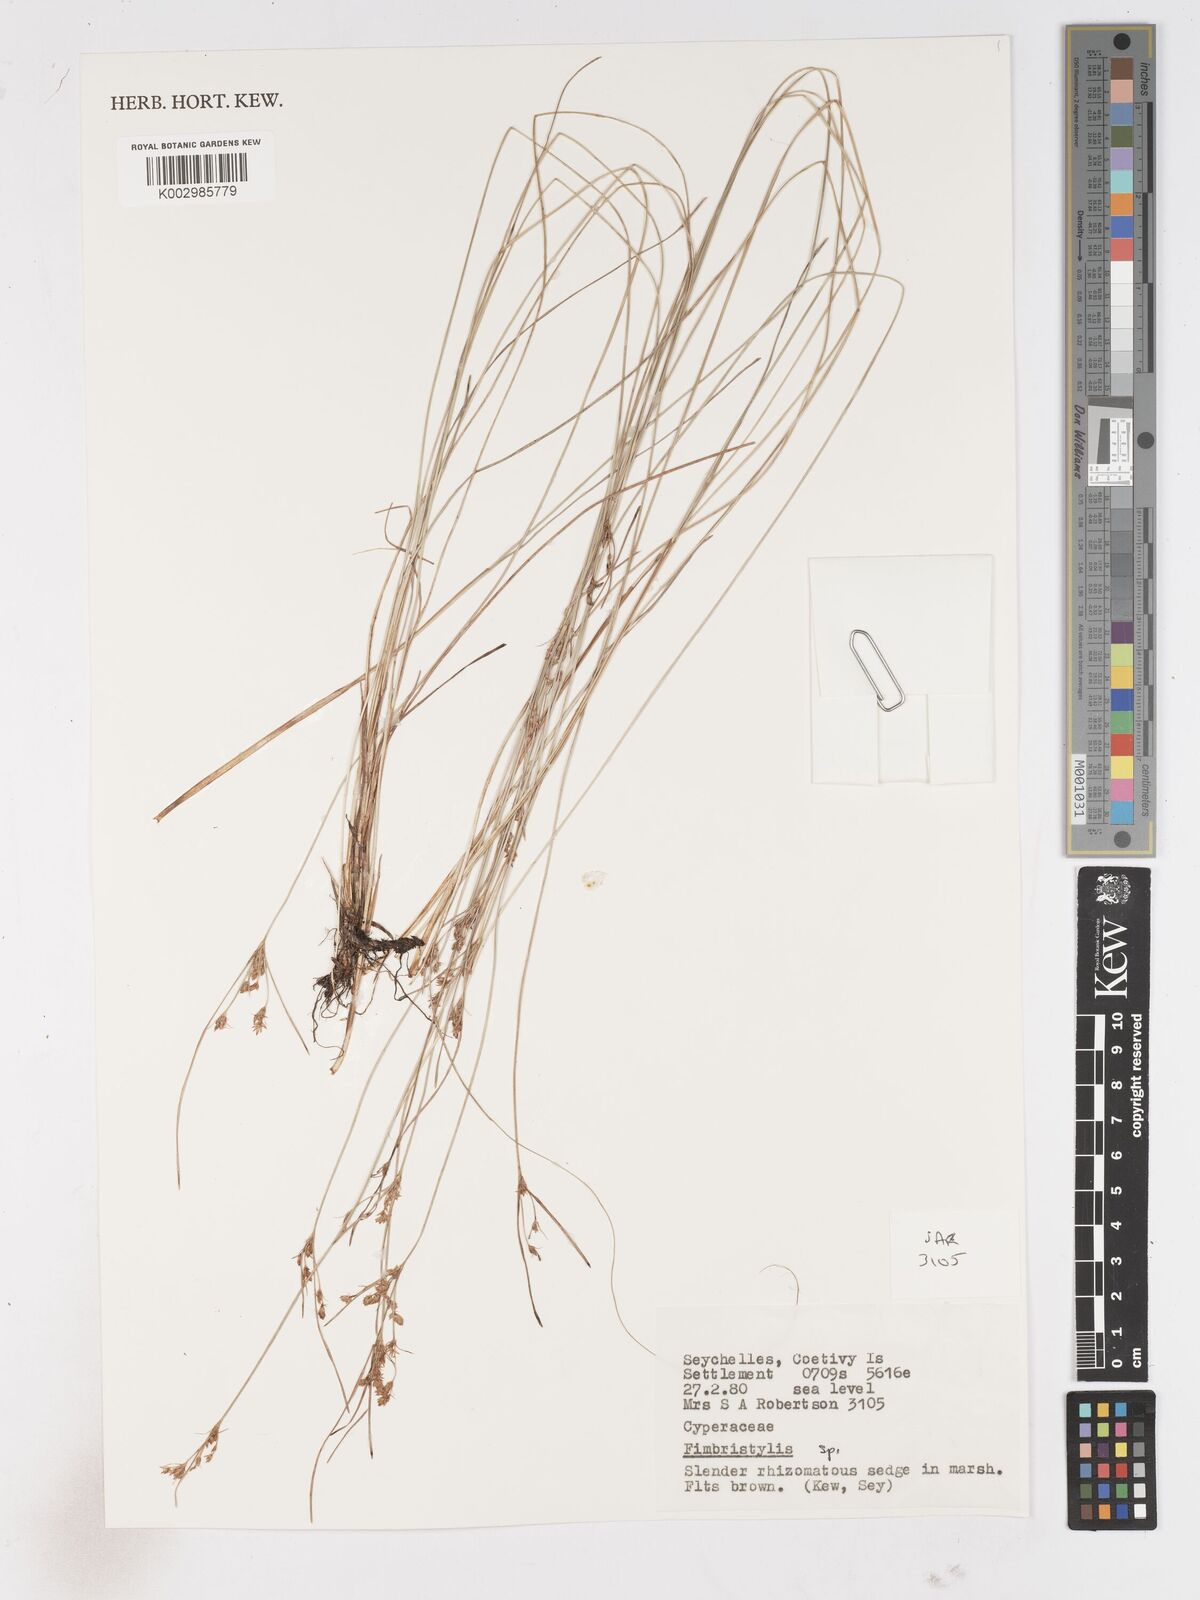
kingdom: Plantae
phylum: Tracheophyta
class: Liliopsida
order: Poales
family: Cyperaceae
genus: Fimbristylis
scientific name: Fimbristylis
